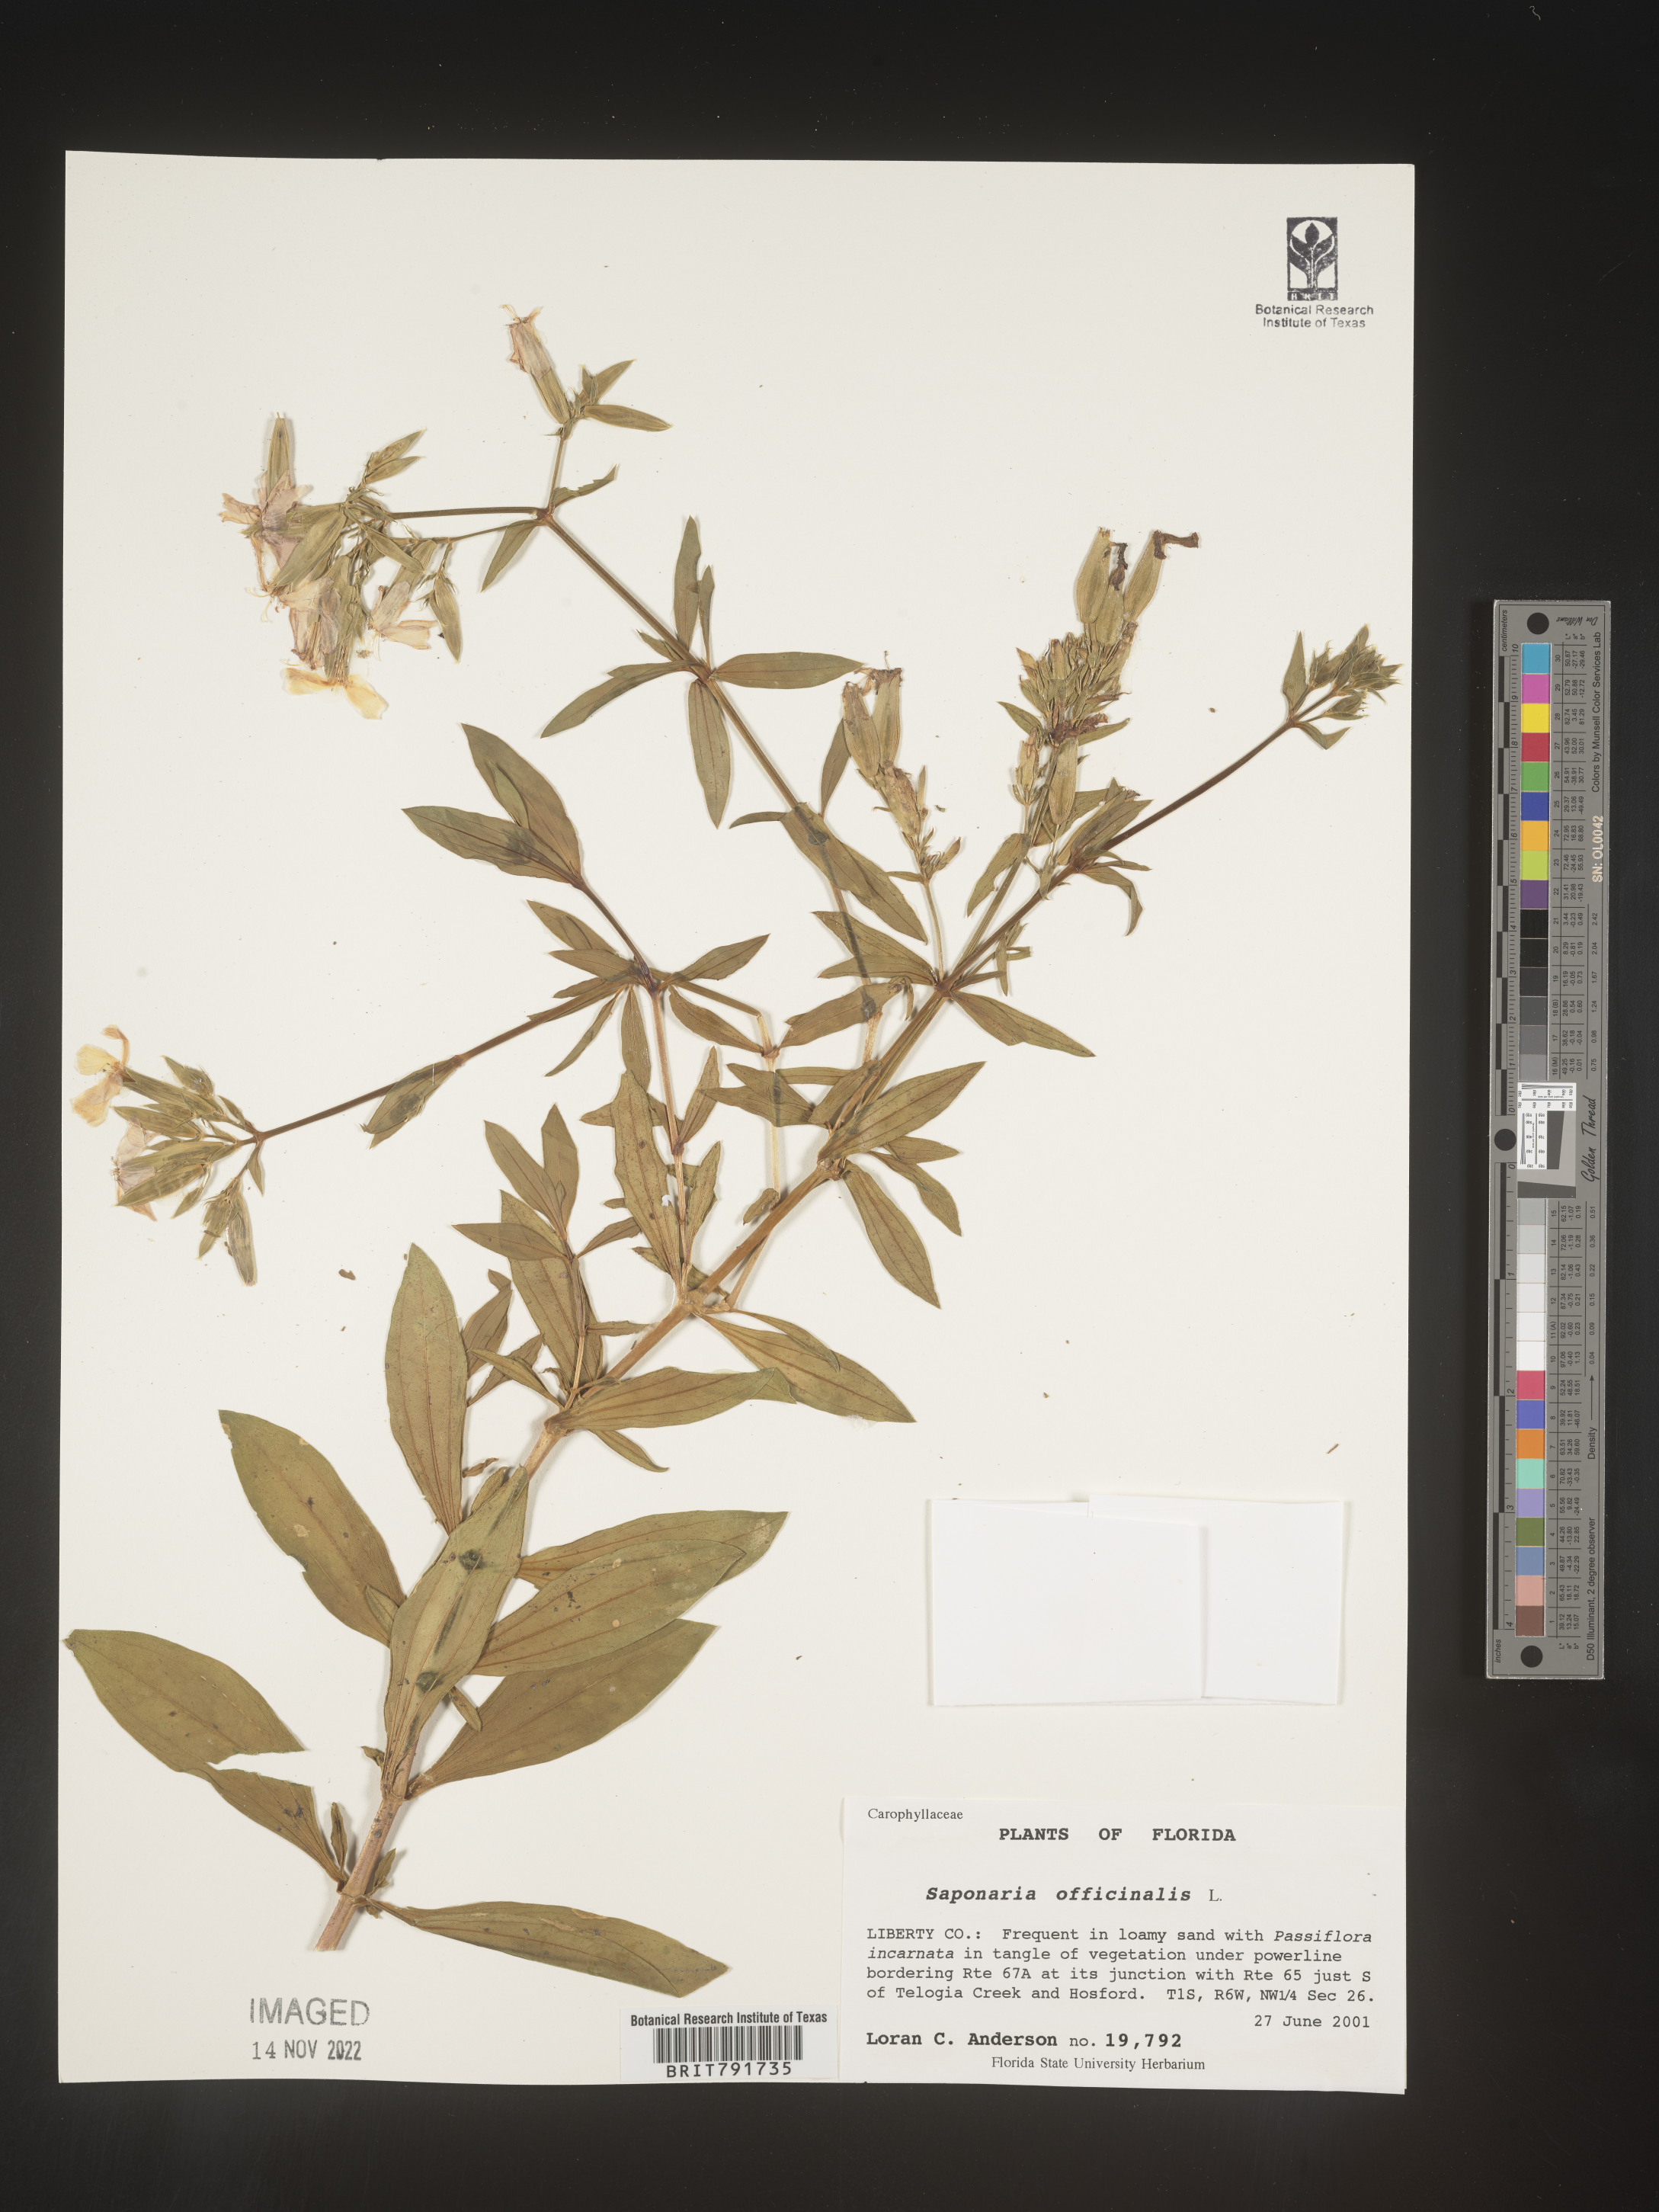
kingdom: Plantae
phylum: Tracheophyta
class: Magnoliopsida
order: Caryophyllales
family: Caryophyllaceae
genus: Saponaria
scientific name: Saponaria officinalis
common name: Soapwort
